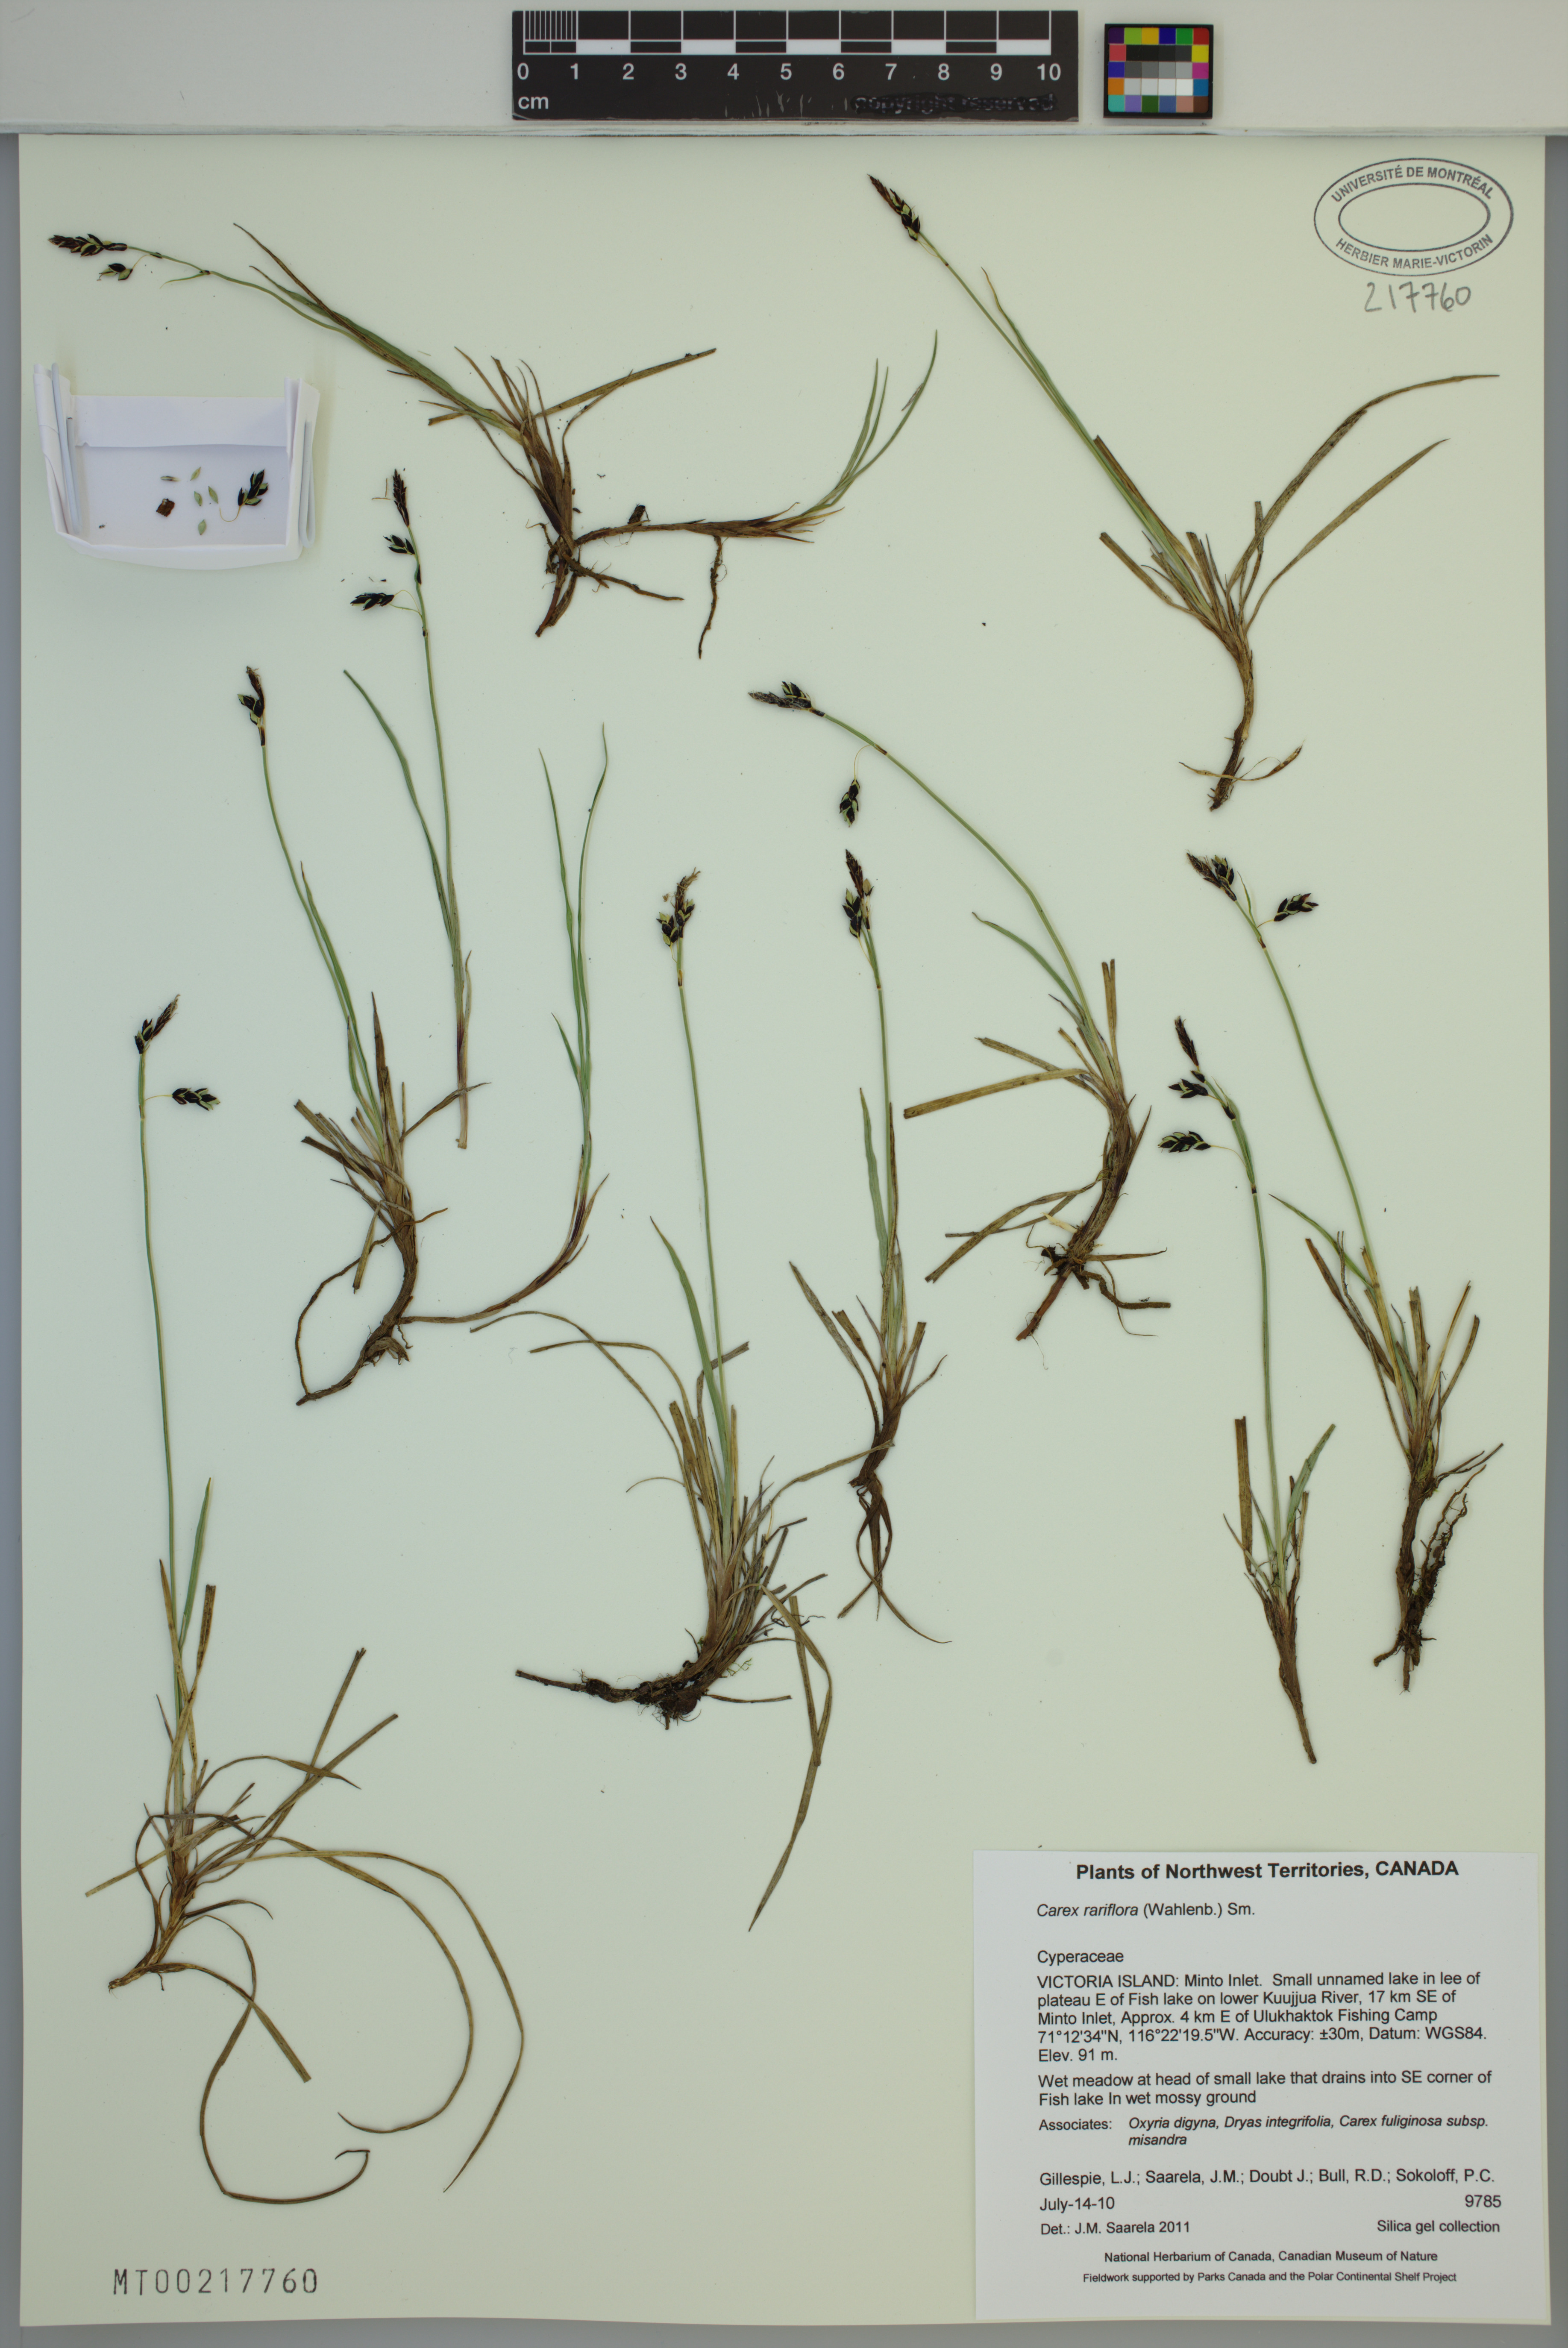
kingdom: Plantae
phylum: Tracheophyta
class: Liliopsida
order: Poales
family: Cyperaceae
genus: Carex
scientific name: Carex rariflora
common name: Loose-flowered alpine sedge
